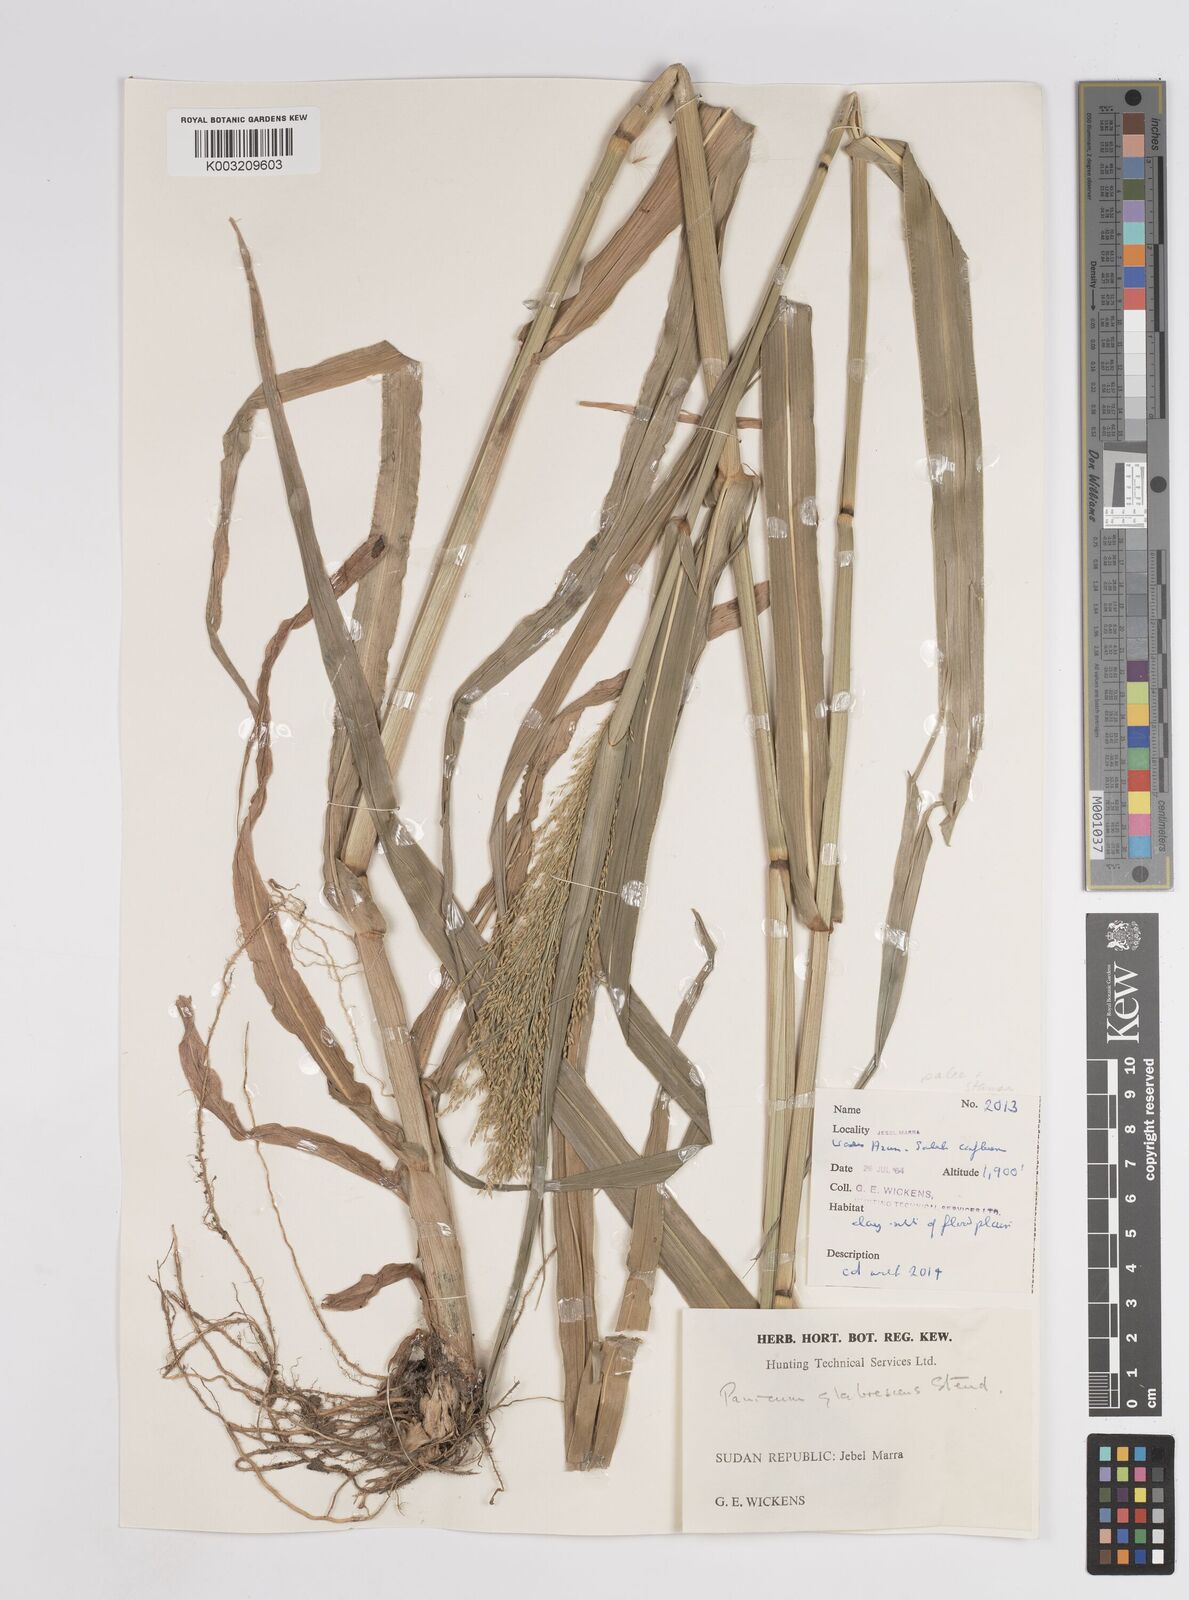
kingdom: Plantae
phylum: Tracheophyta
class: Liliopsida
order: Poales
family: Poaceae
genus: Panicum
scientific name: Panicum subalbidum
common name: Elbow buffalo grass
